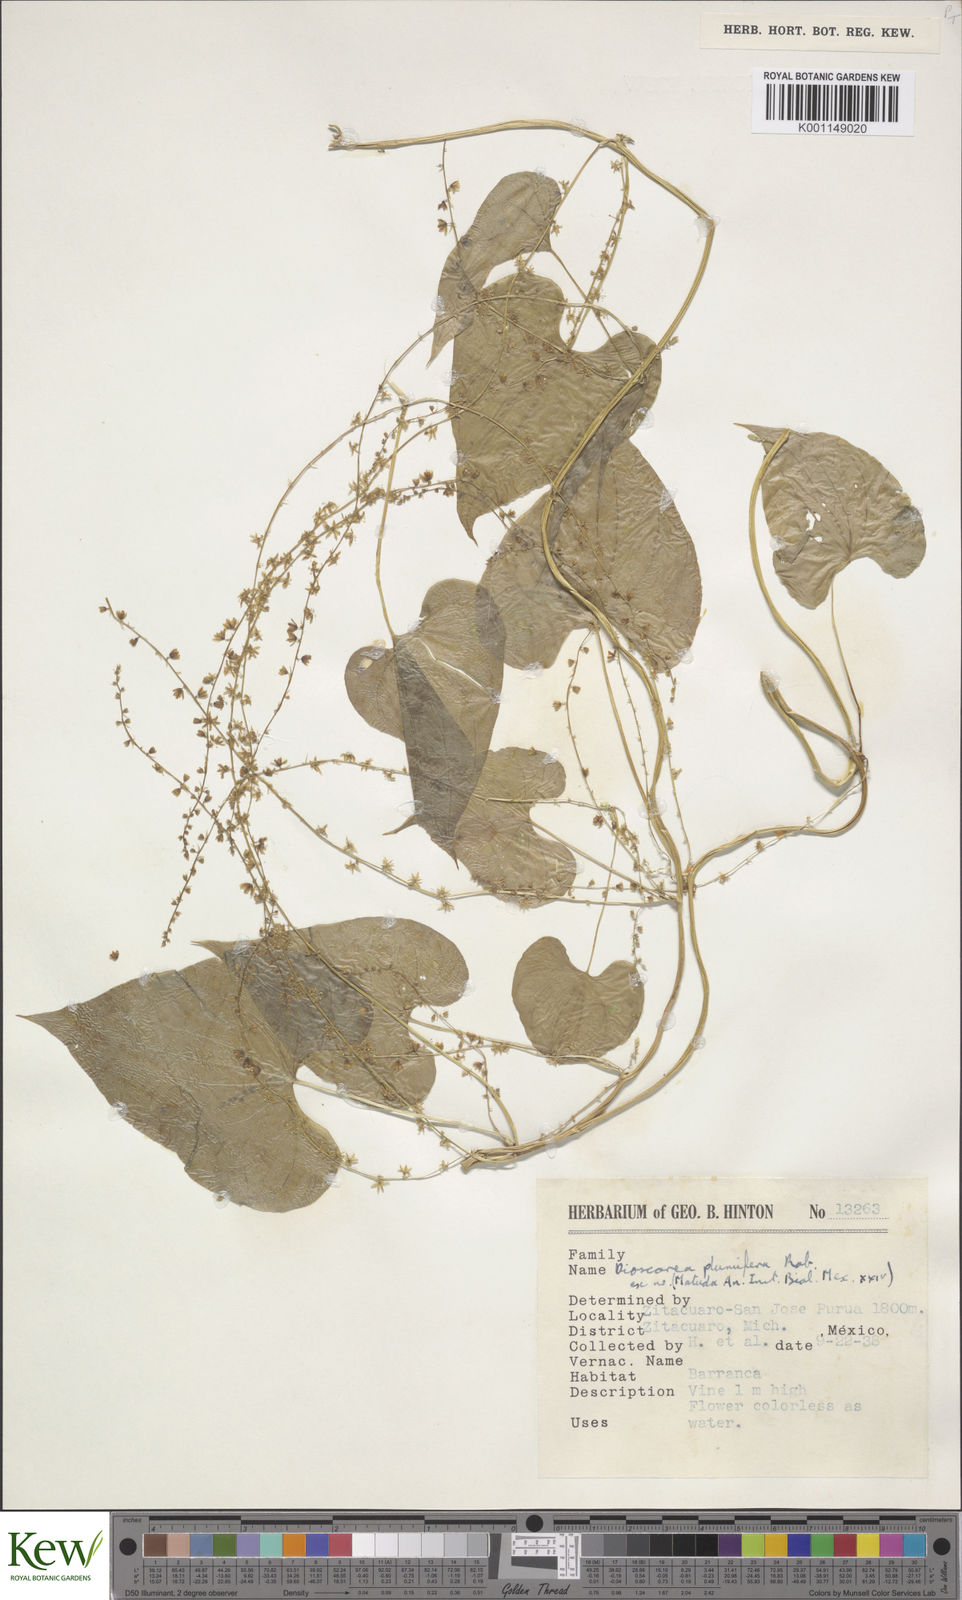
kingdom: Plantae
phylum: Tracheophyta
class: Liliopsida
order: Dioscoreales
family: Dioscoreaceae
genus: Dioscorea
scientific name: Dioscorea plumifera
